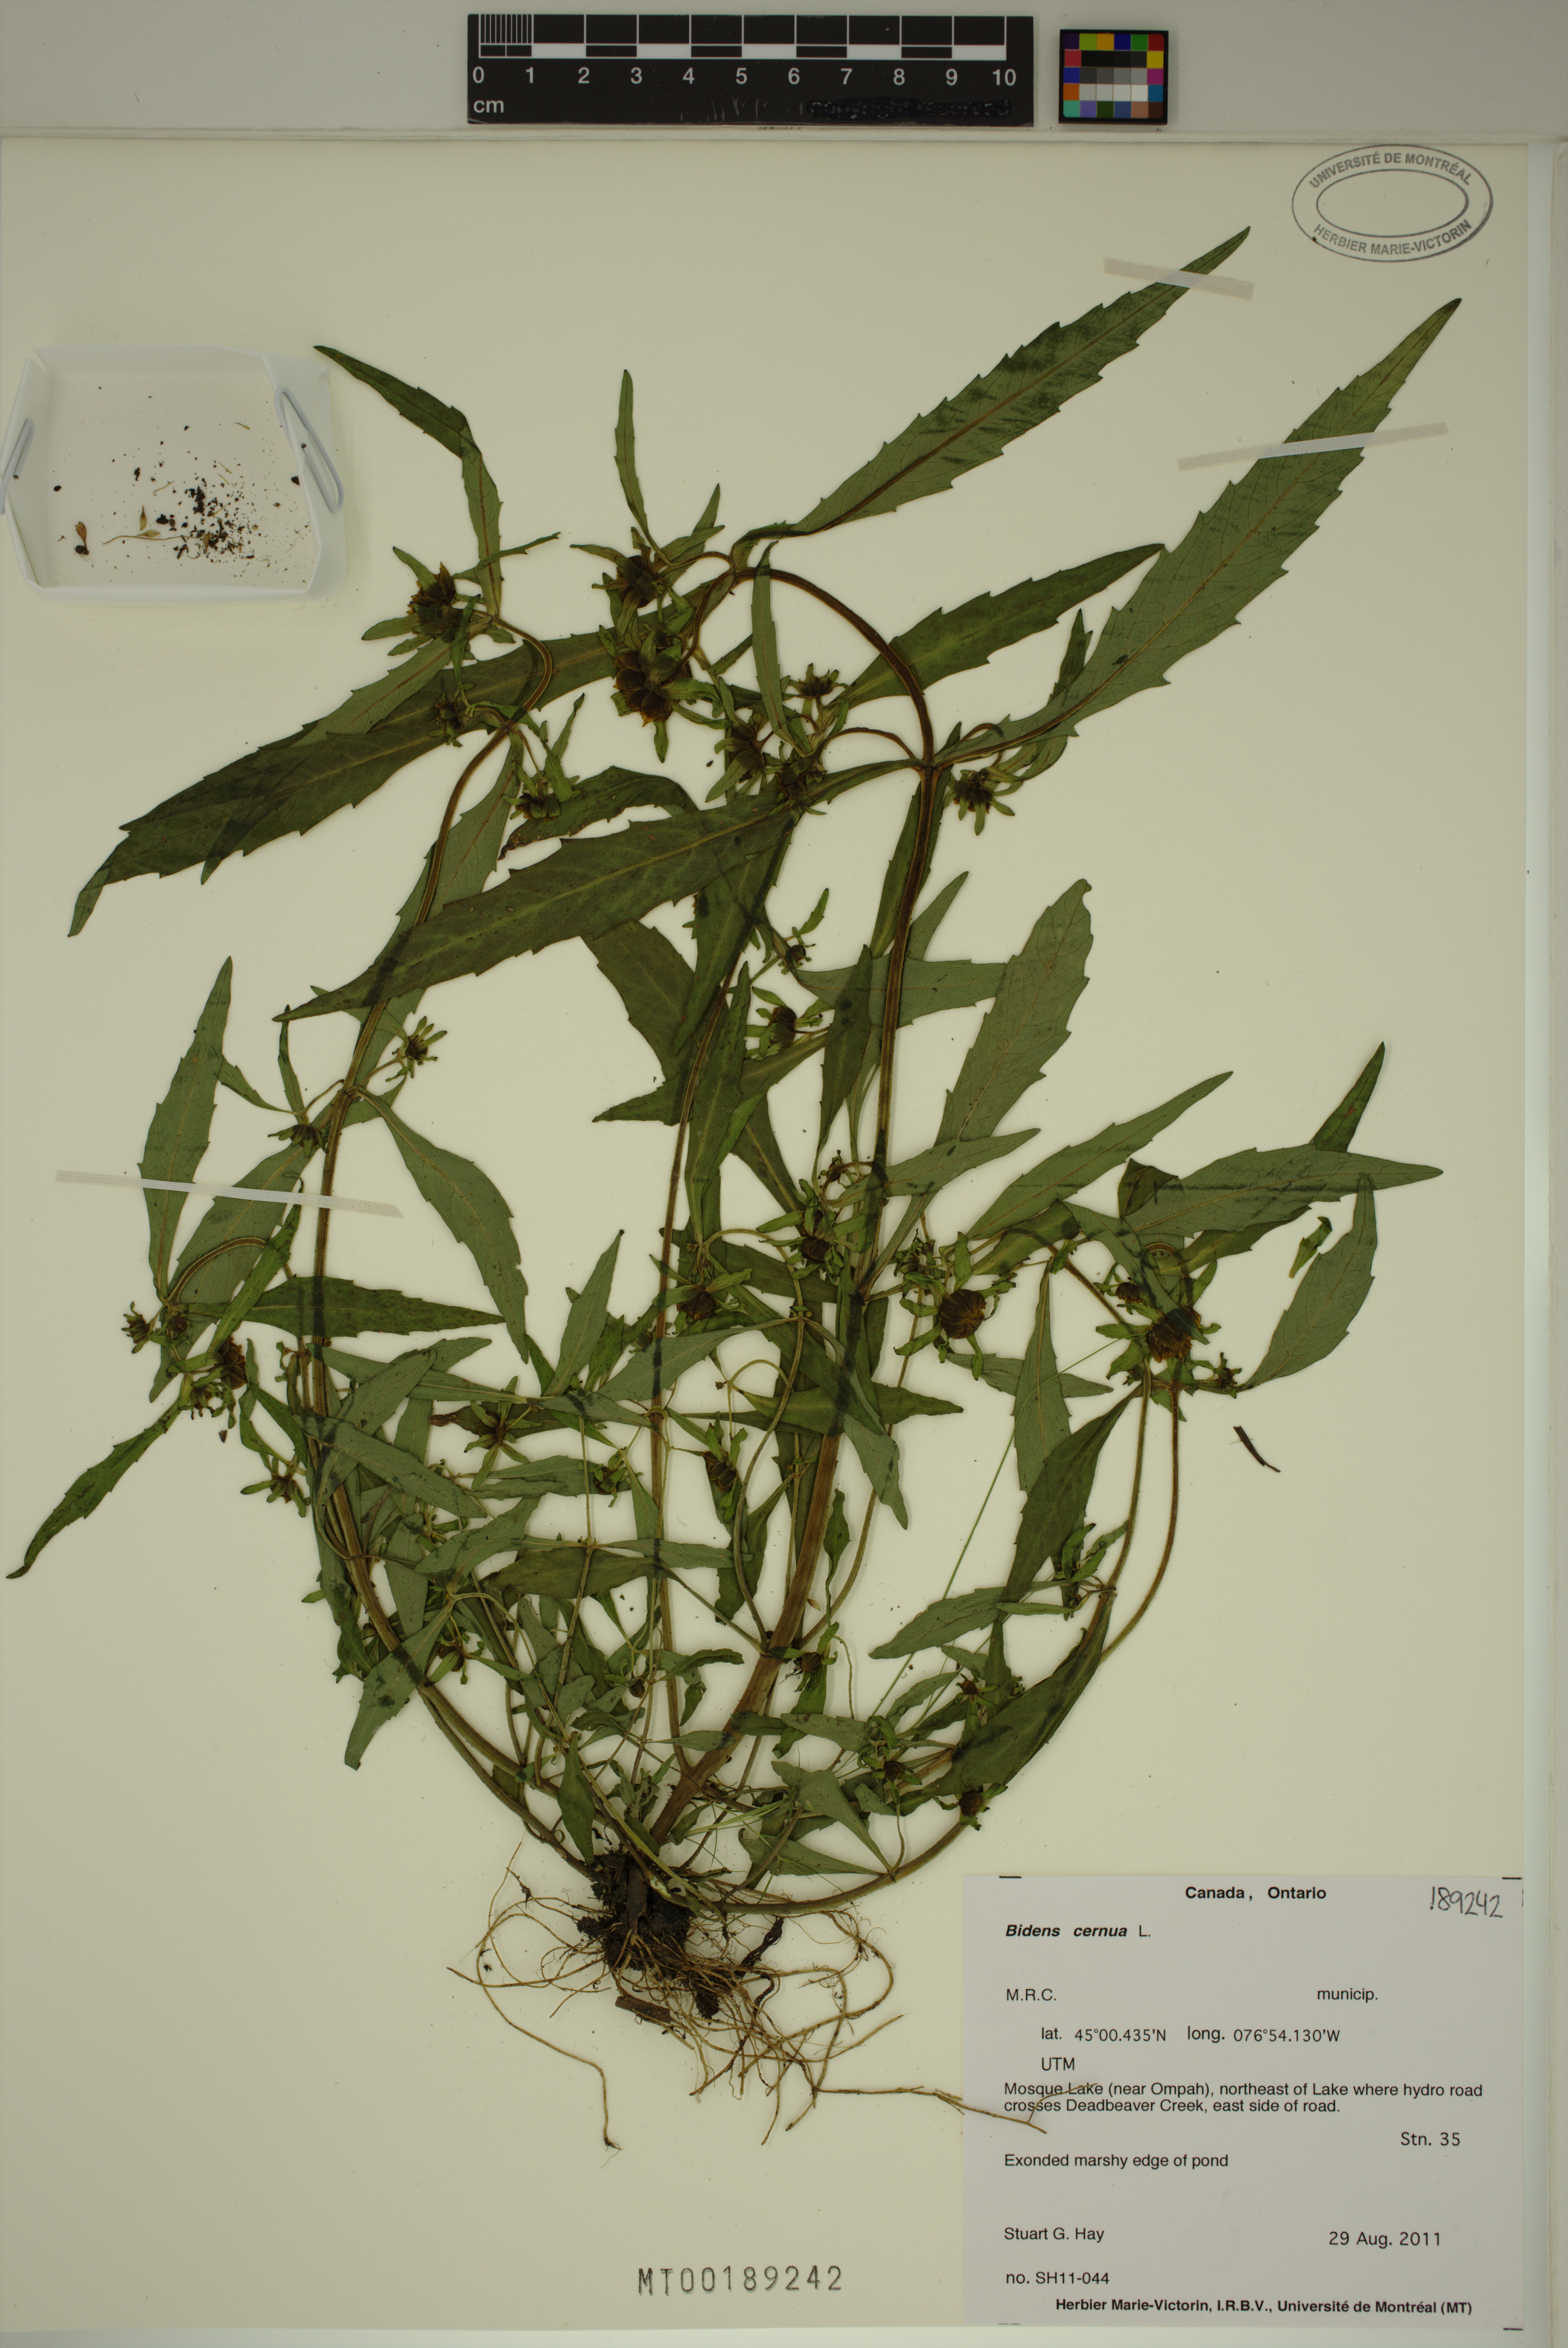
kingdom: Plantae
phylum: Tracheophyta
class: Magnoliopsida
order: Asterales
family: Asteraceae
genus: Bidens
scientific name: Bidens cernua
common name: Nodding bur-marigold
